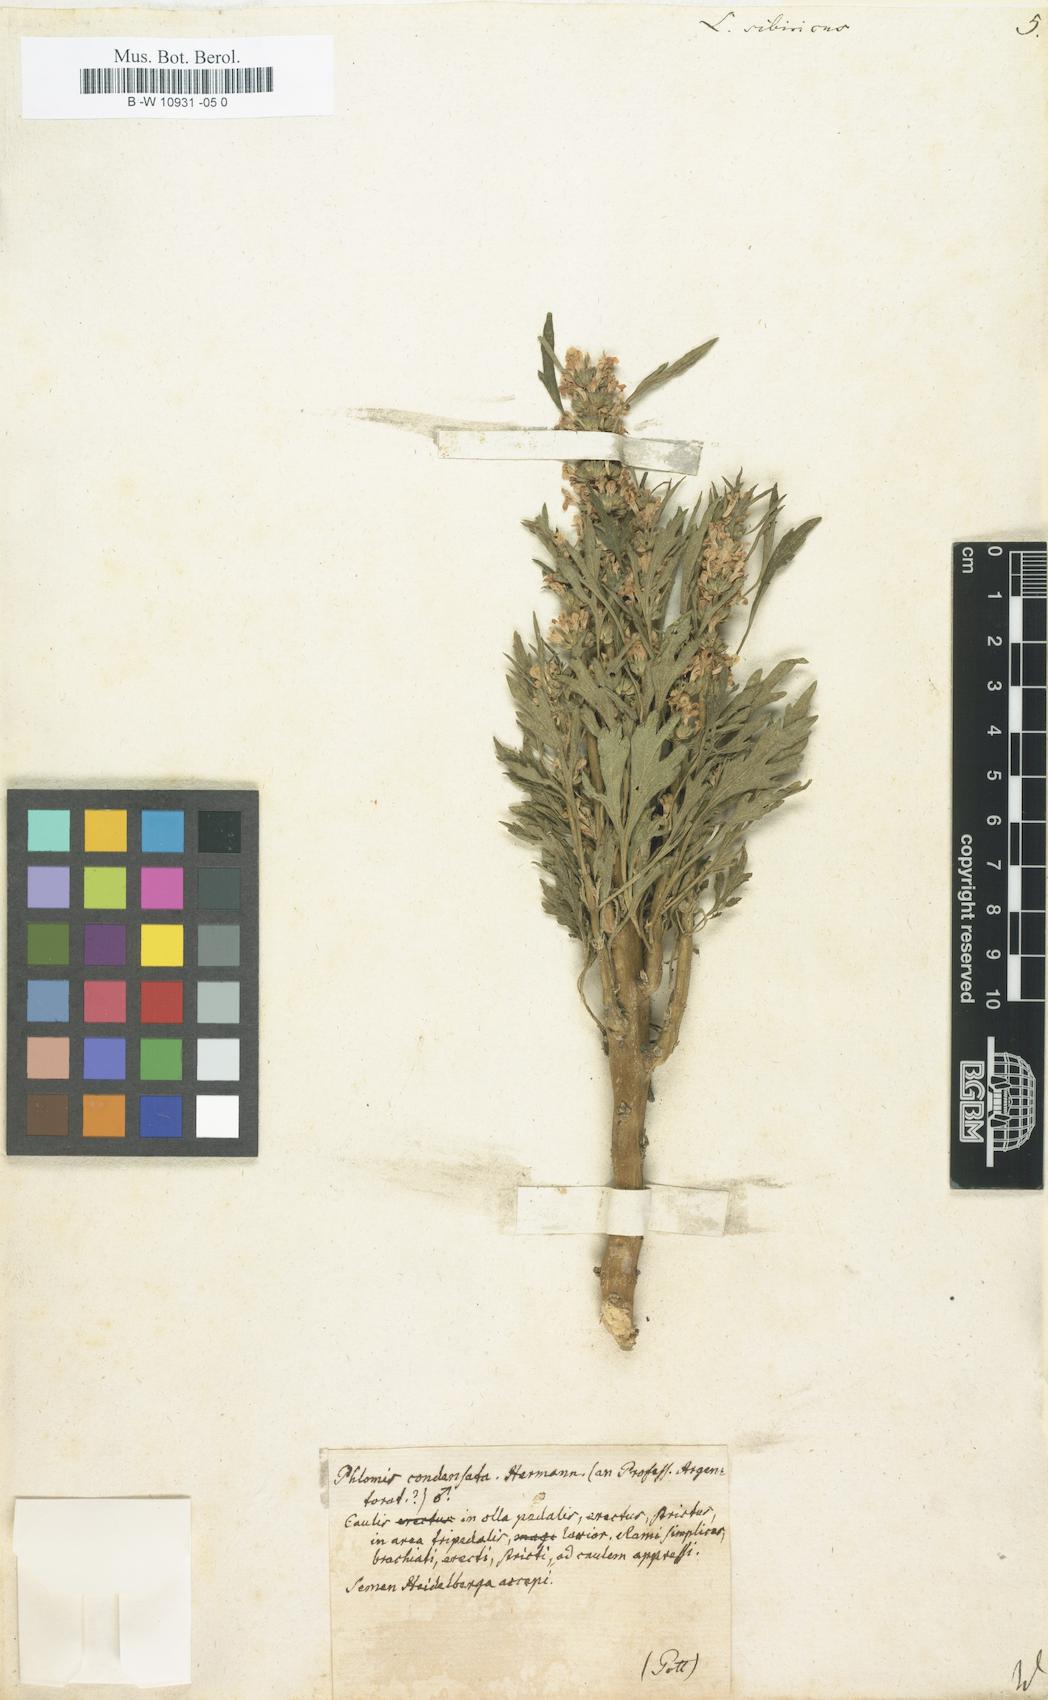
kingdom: Plantae
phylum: Tracheophyta
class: Magnoliopsida
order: Lamiales
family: Lamiaceae
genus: Leonurus
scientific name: Leonurus sibiricus
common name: Honeyweed
